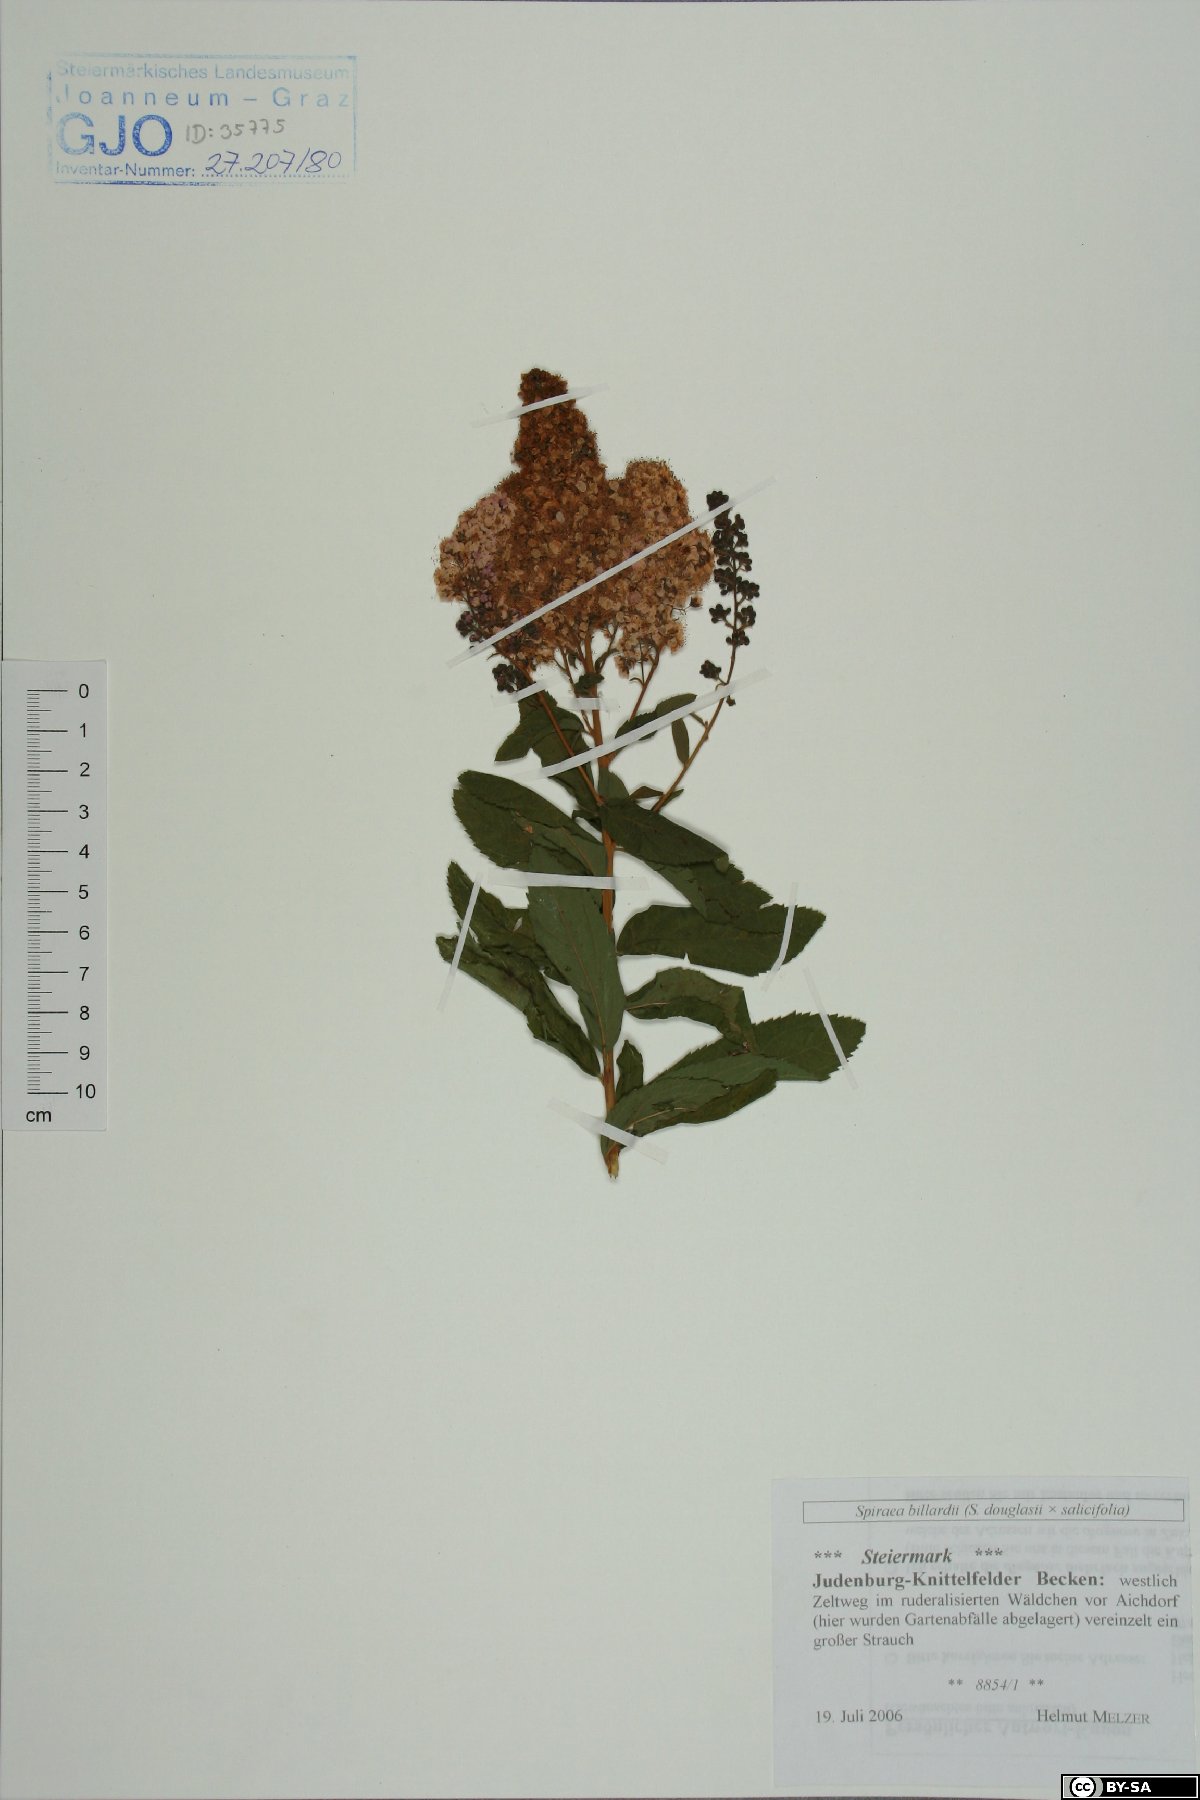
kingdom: Plantae
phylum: Tracheophyta
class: Magnoliopsida
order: Rosales
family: Rosaceae
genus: Spiraea
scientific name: Spiraea billardii
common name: Billard's bridewort
